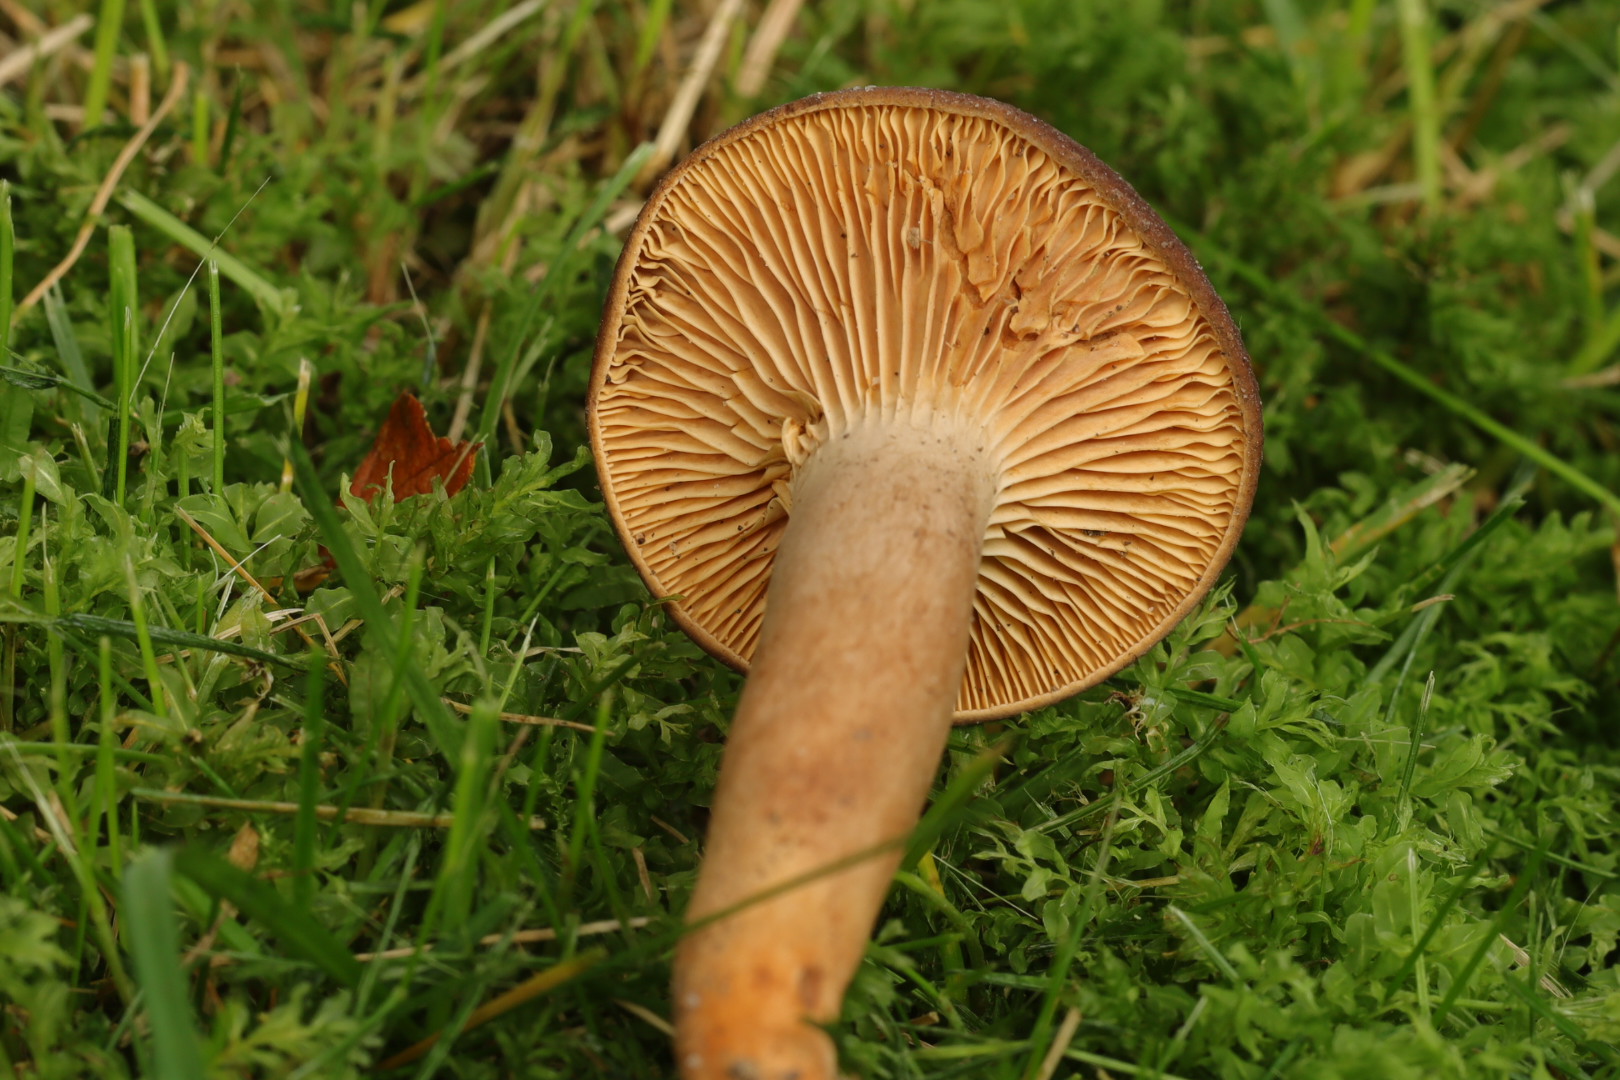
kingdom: Fungi
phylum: Basidiomycota
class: Agaricomycetes
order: Russulales
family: Russulaceae
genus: Lactarius
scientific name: Lactarius serifluus
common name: tæge-mælkehat
